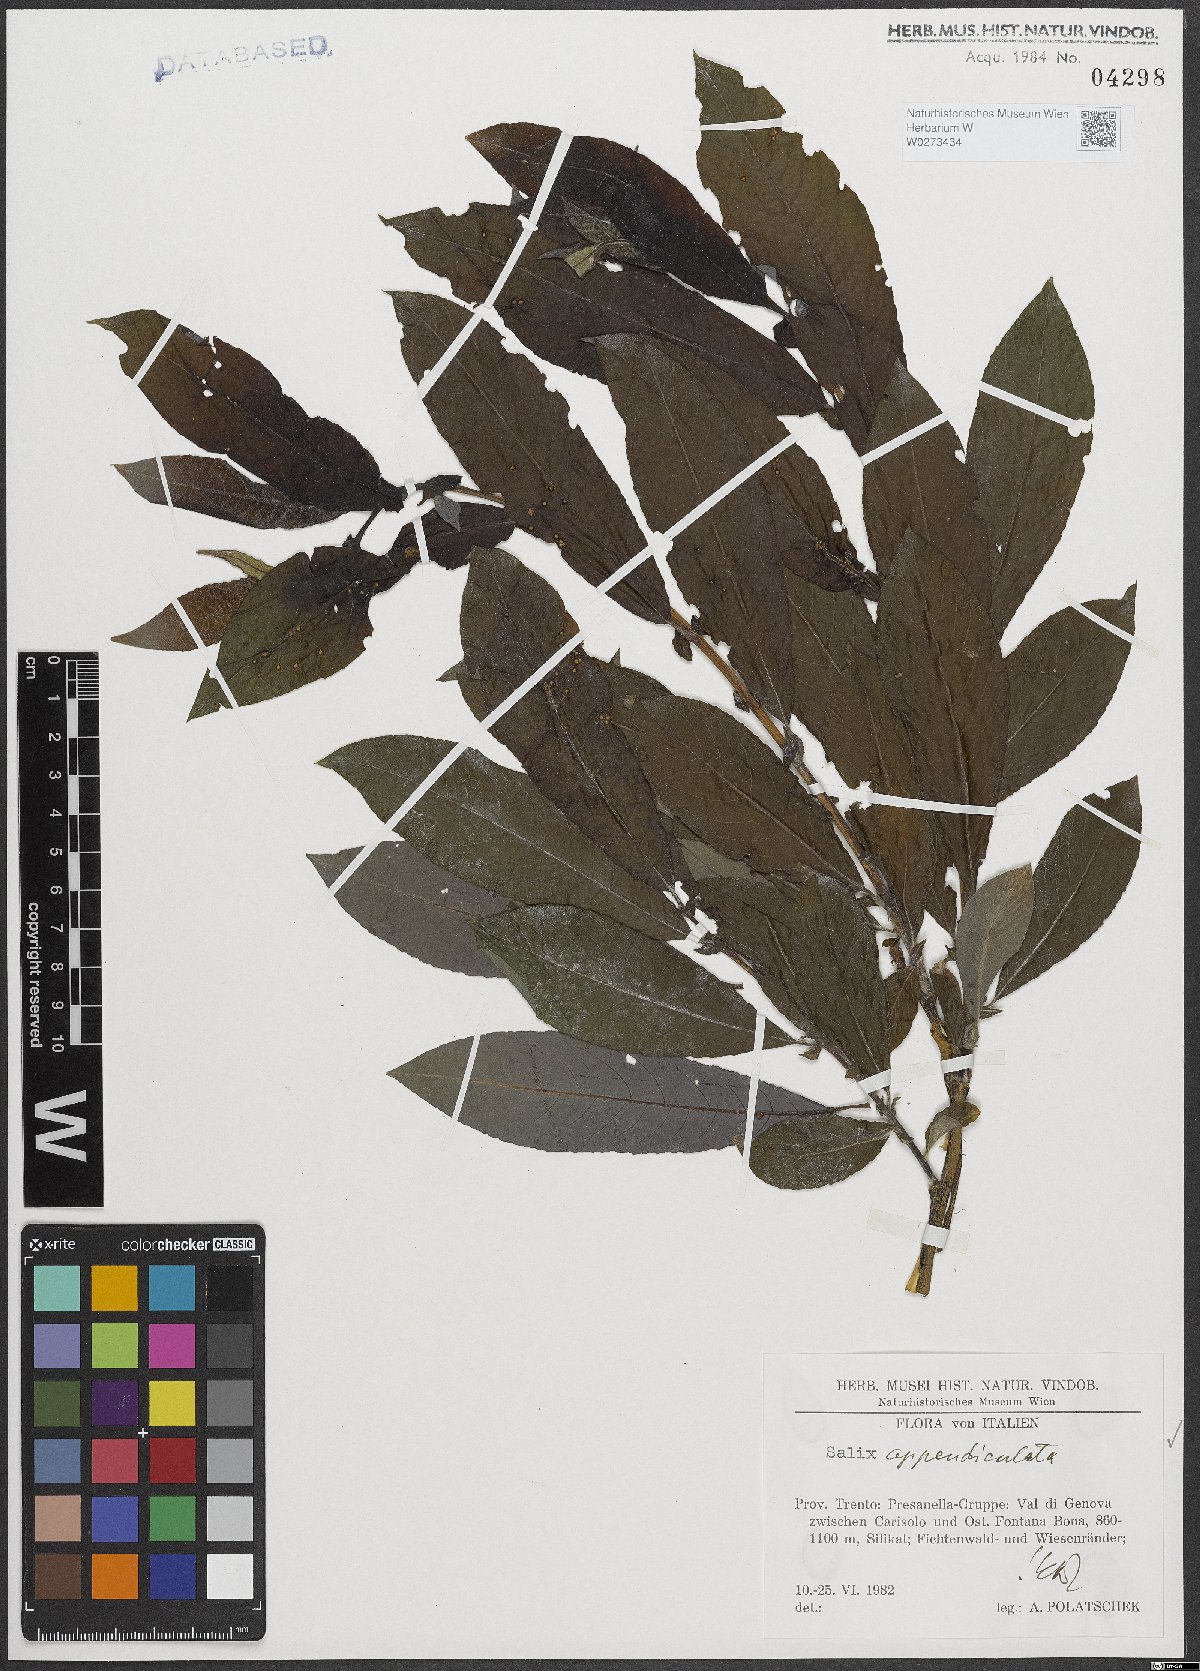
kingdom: Plantae
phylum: Tracheophyta
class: Magnoliopsida
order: Malpighiales
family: Salicaceae
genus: Salix
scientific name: Salix appendiculata
